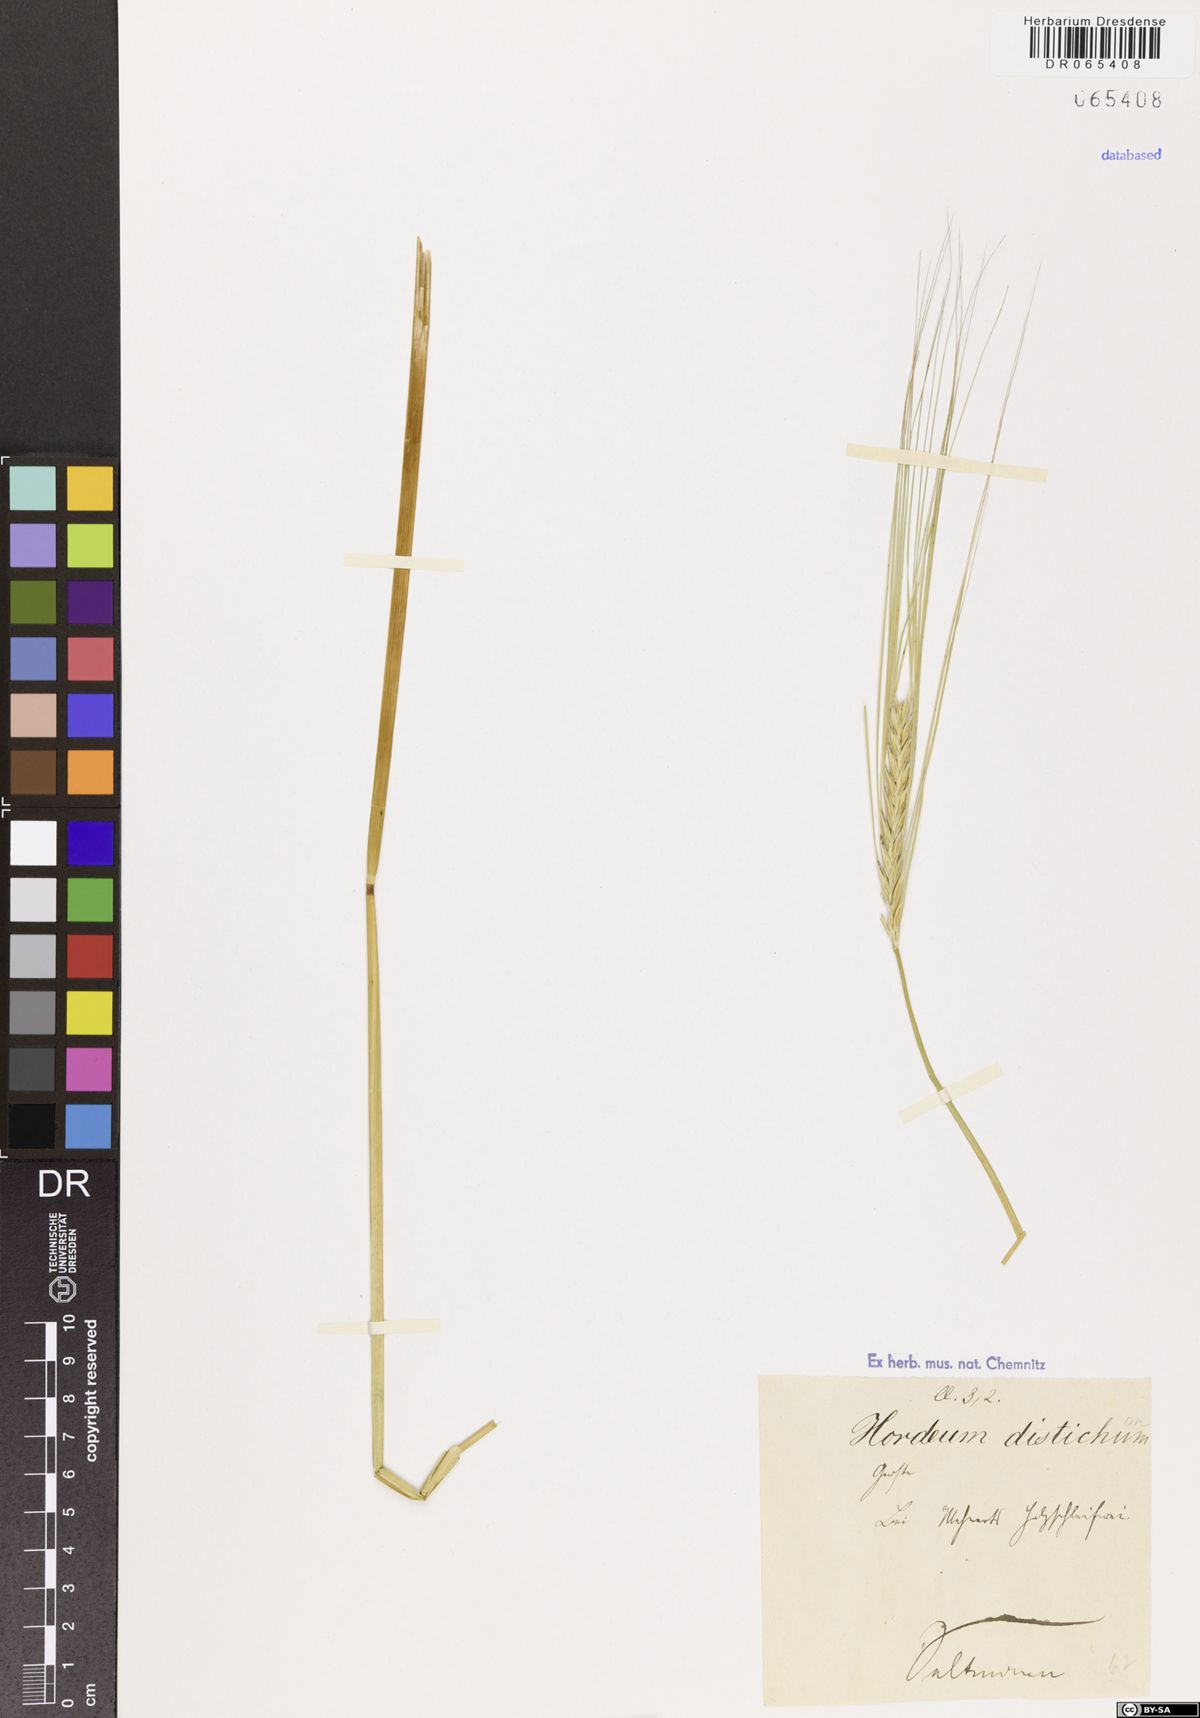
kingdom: Plantae
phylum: Tracheophyta
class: Liliopsida
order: Poales
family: Poaceae
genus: Hordeum
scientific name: Hordeum distichon
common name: Two-rowed barley
